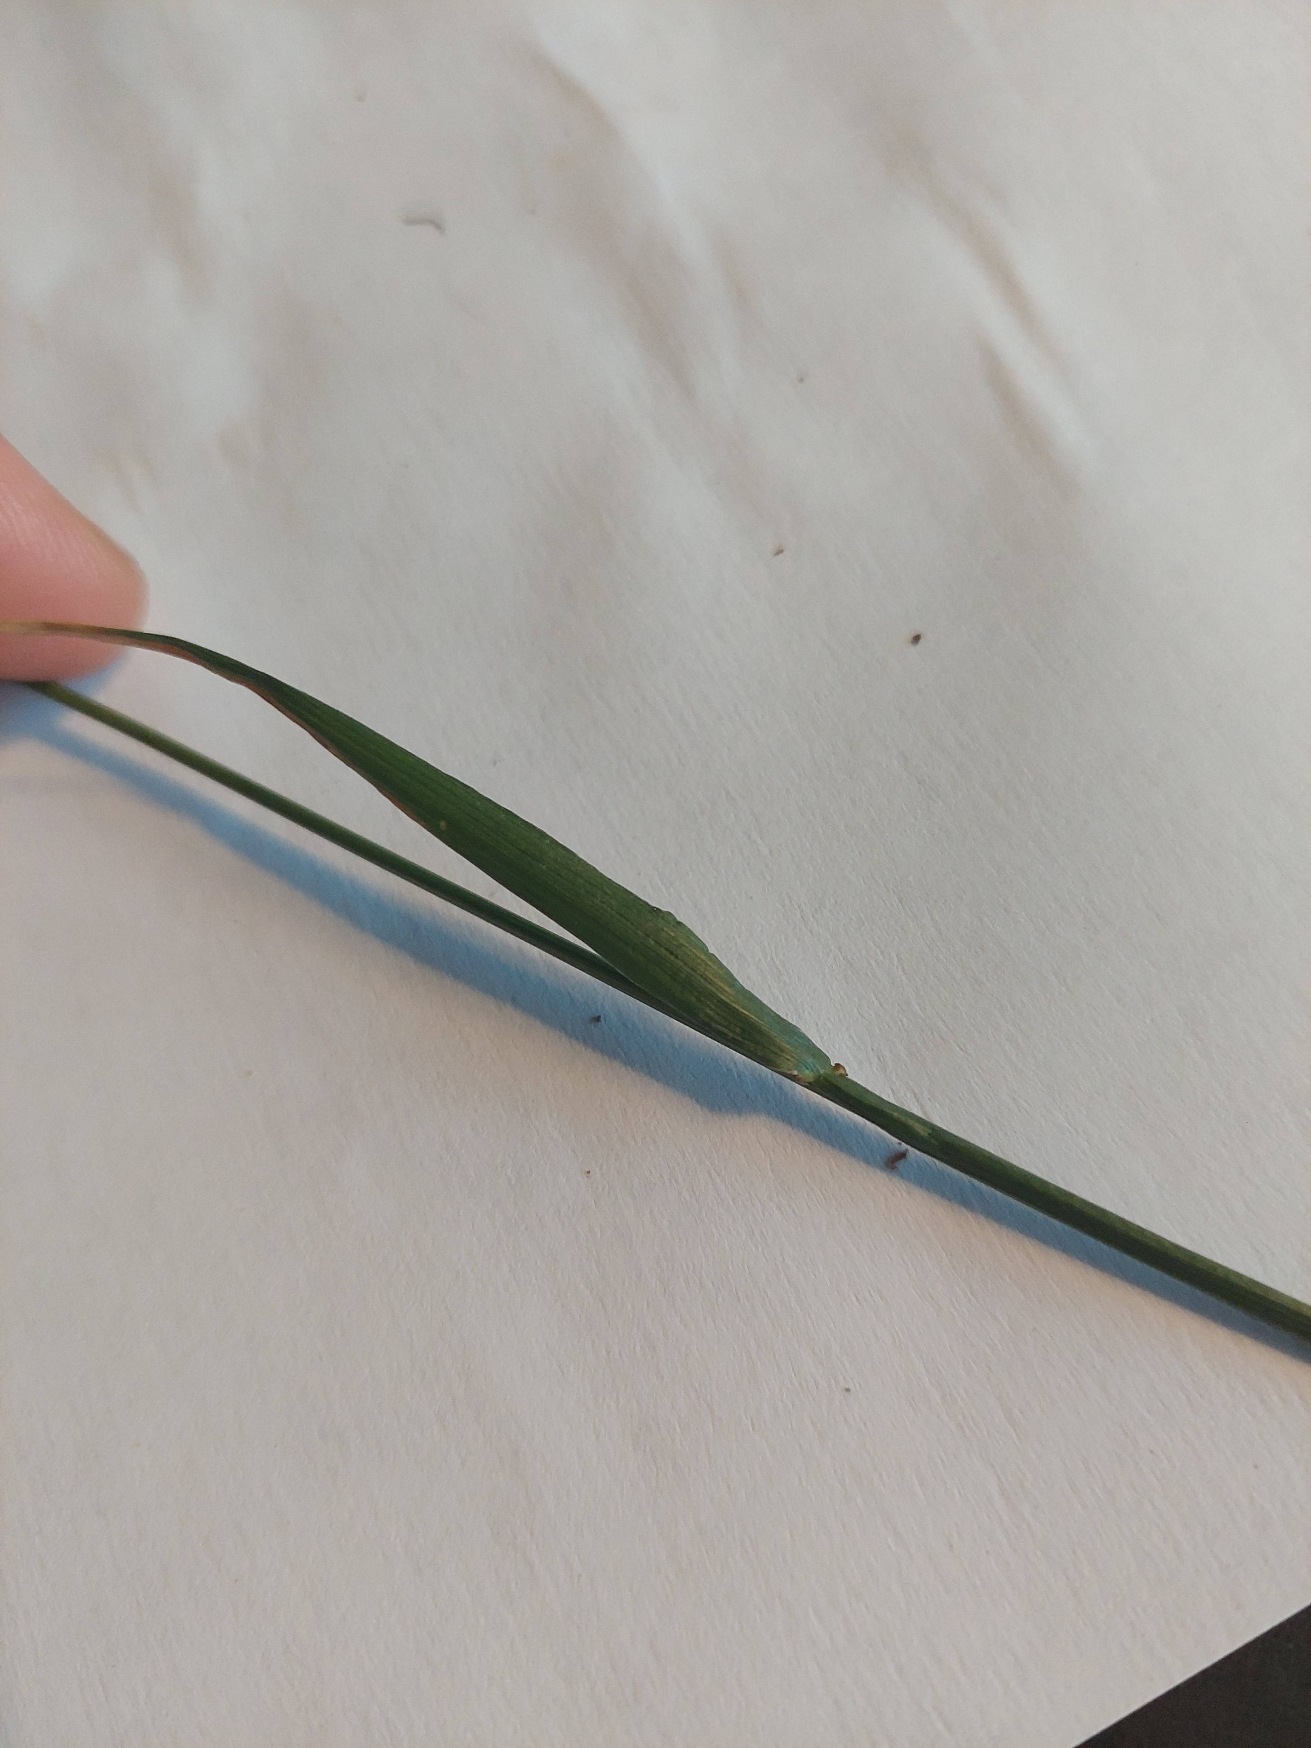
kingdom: Plantae
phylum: Tracheophyta
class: Liliopsida
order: Poales
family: Poaceae
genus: Lolium
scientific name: Lolium pratense
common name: Eng-svingel
